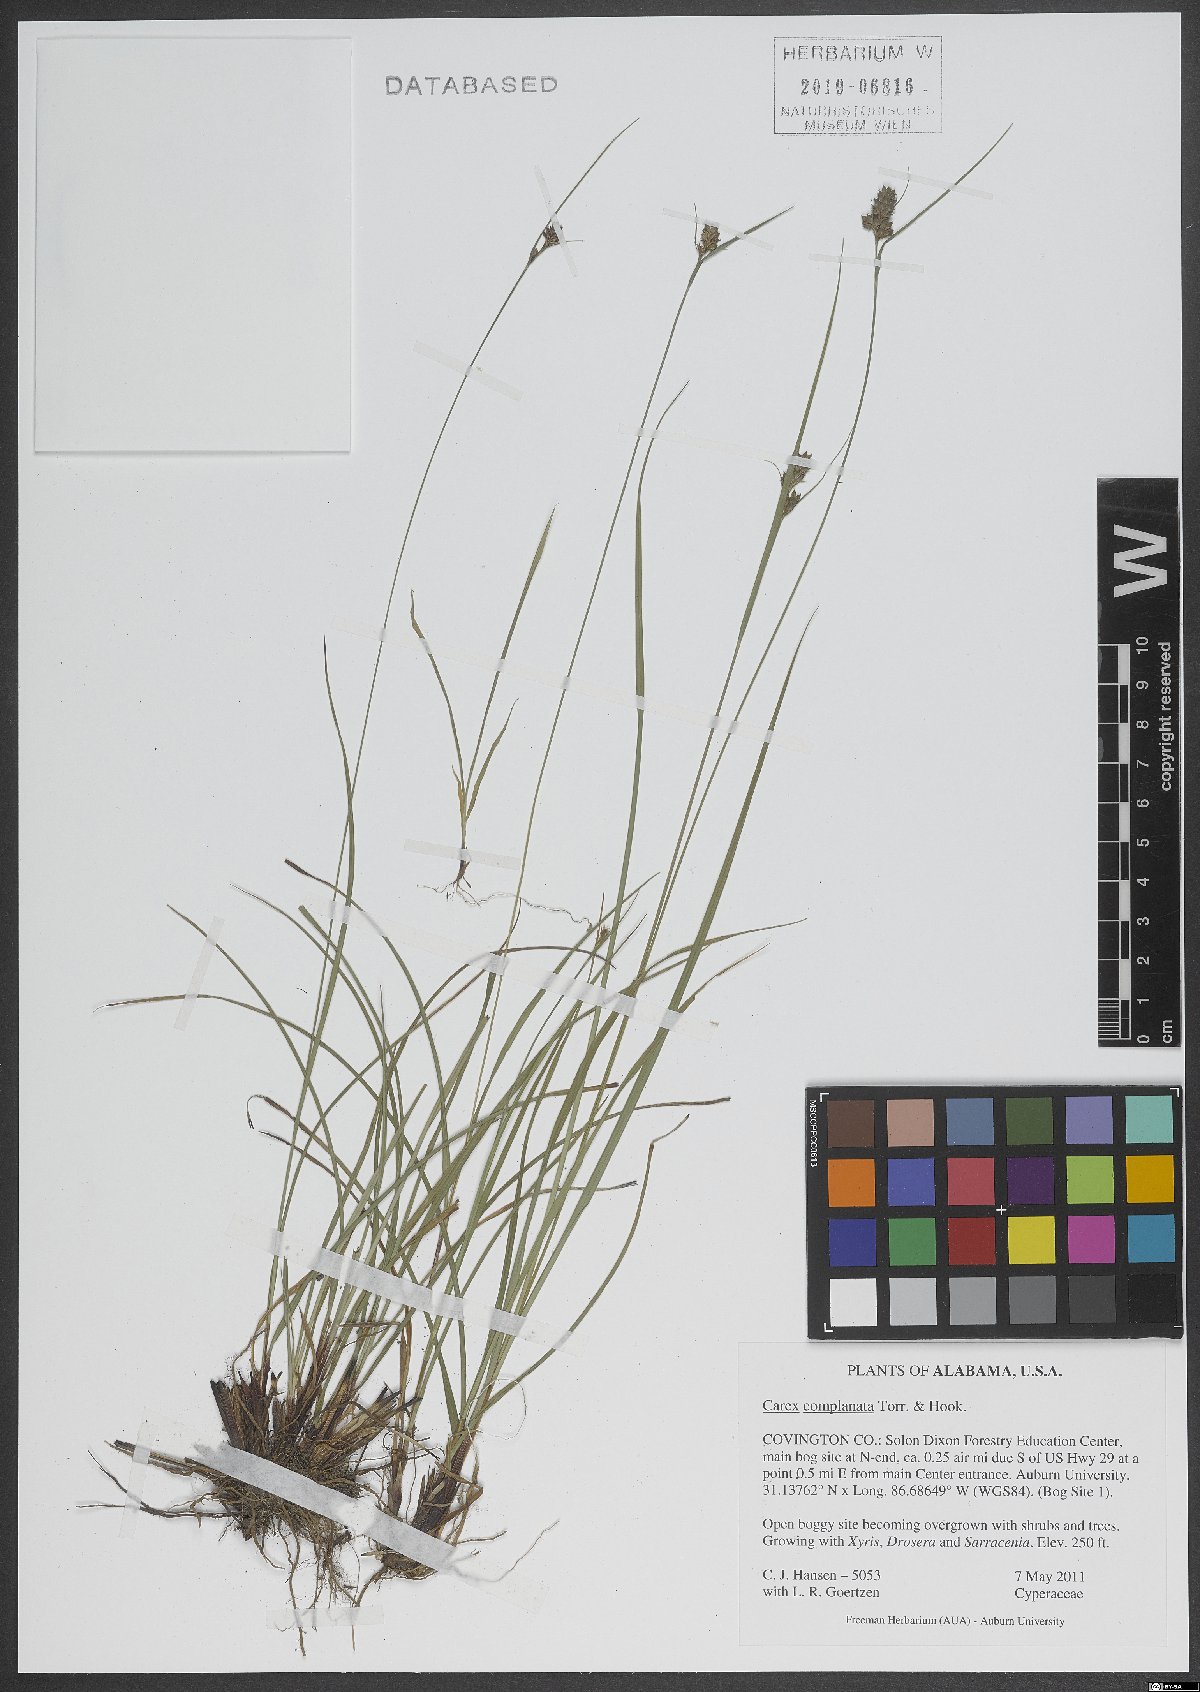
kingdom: Plantae
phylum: Tracheophyta
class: Liliopsida
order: Poales
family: Cyperaceae
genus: Carex
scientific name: Carex complanata
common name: Hirsute sedge
